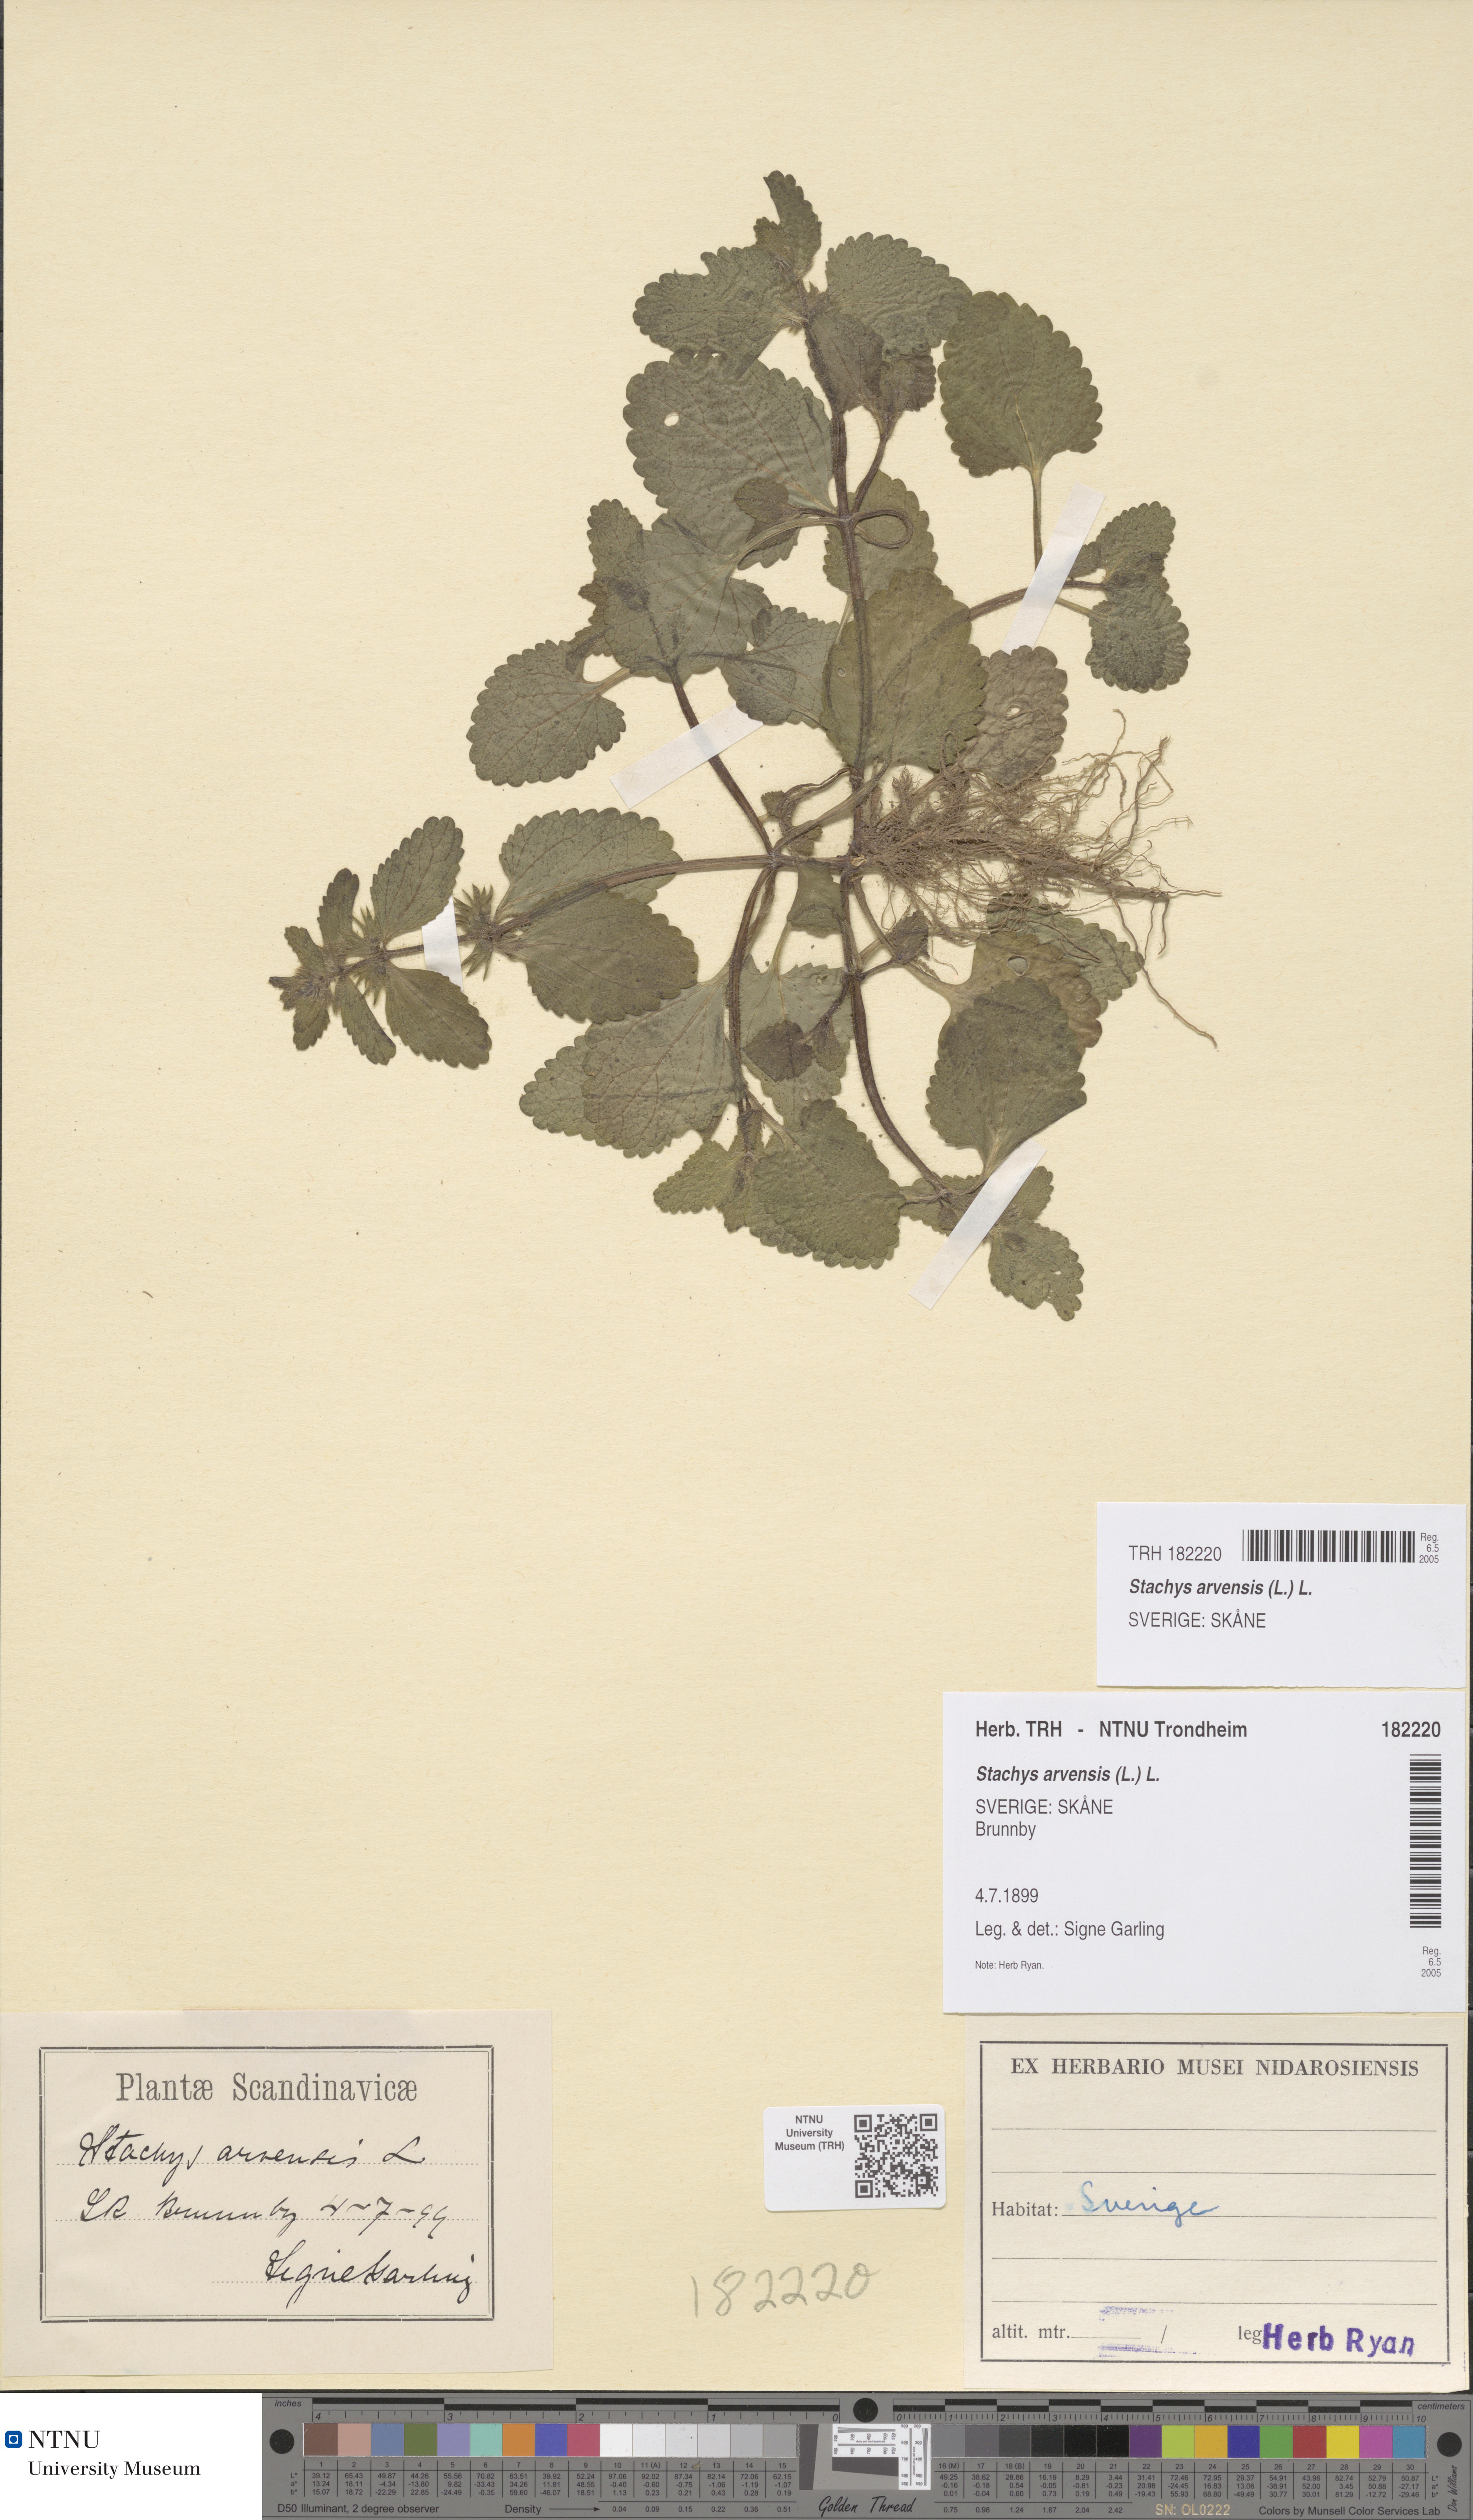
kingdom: Plantae
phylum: Tracheophyta
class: Magnoliopsida
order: Lamiales
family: Lamiaceae
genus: Stachys
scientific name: Stachys arvensis
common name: Field woundwort
